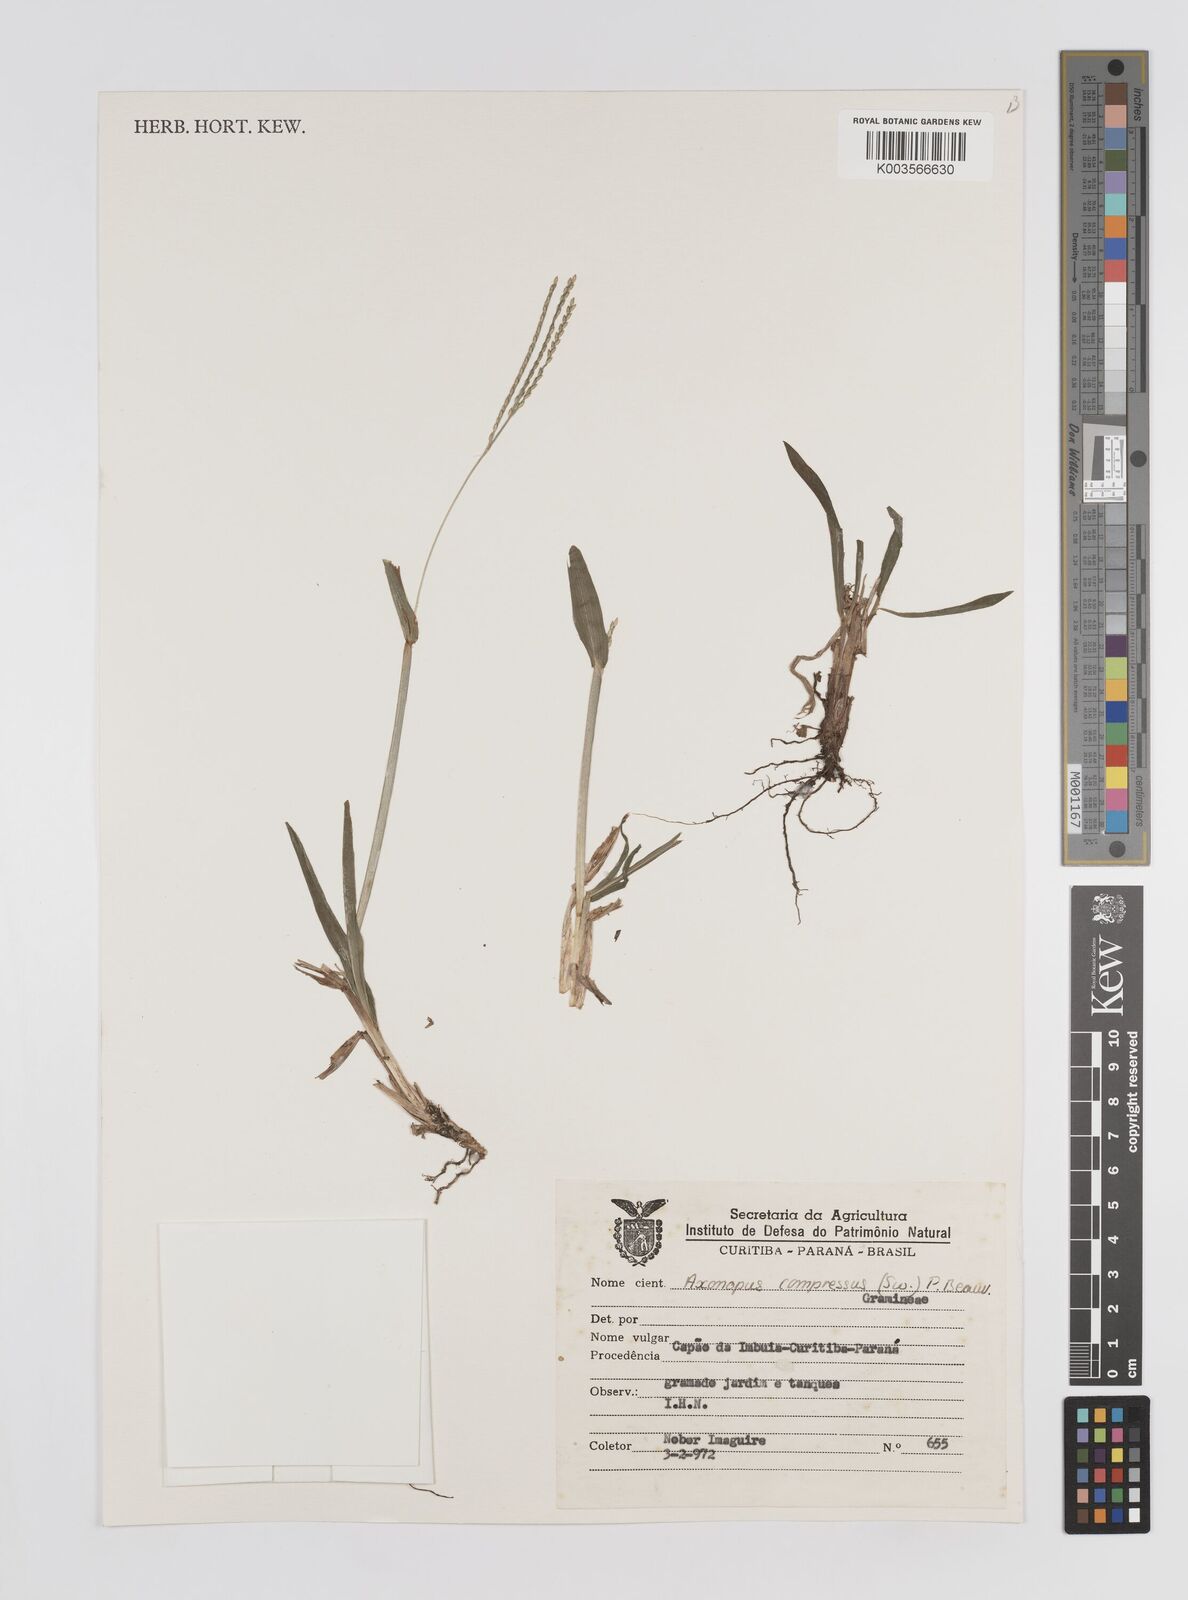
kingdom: Plantae
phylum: Tracheophyta
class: Liliopsida
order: Poales
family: Poaceae
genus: Axonopus
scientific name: Axonopus compressus
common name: American carpet grass
